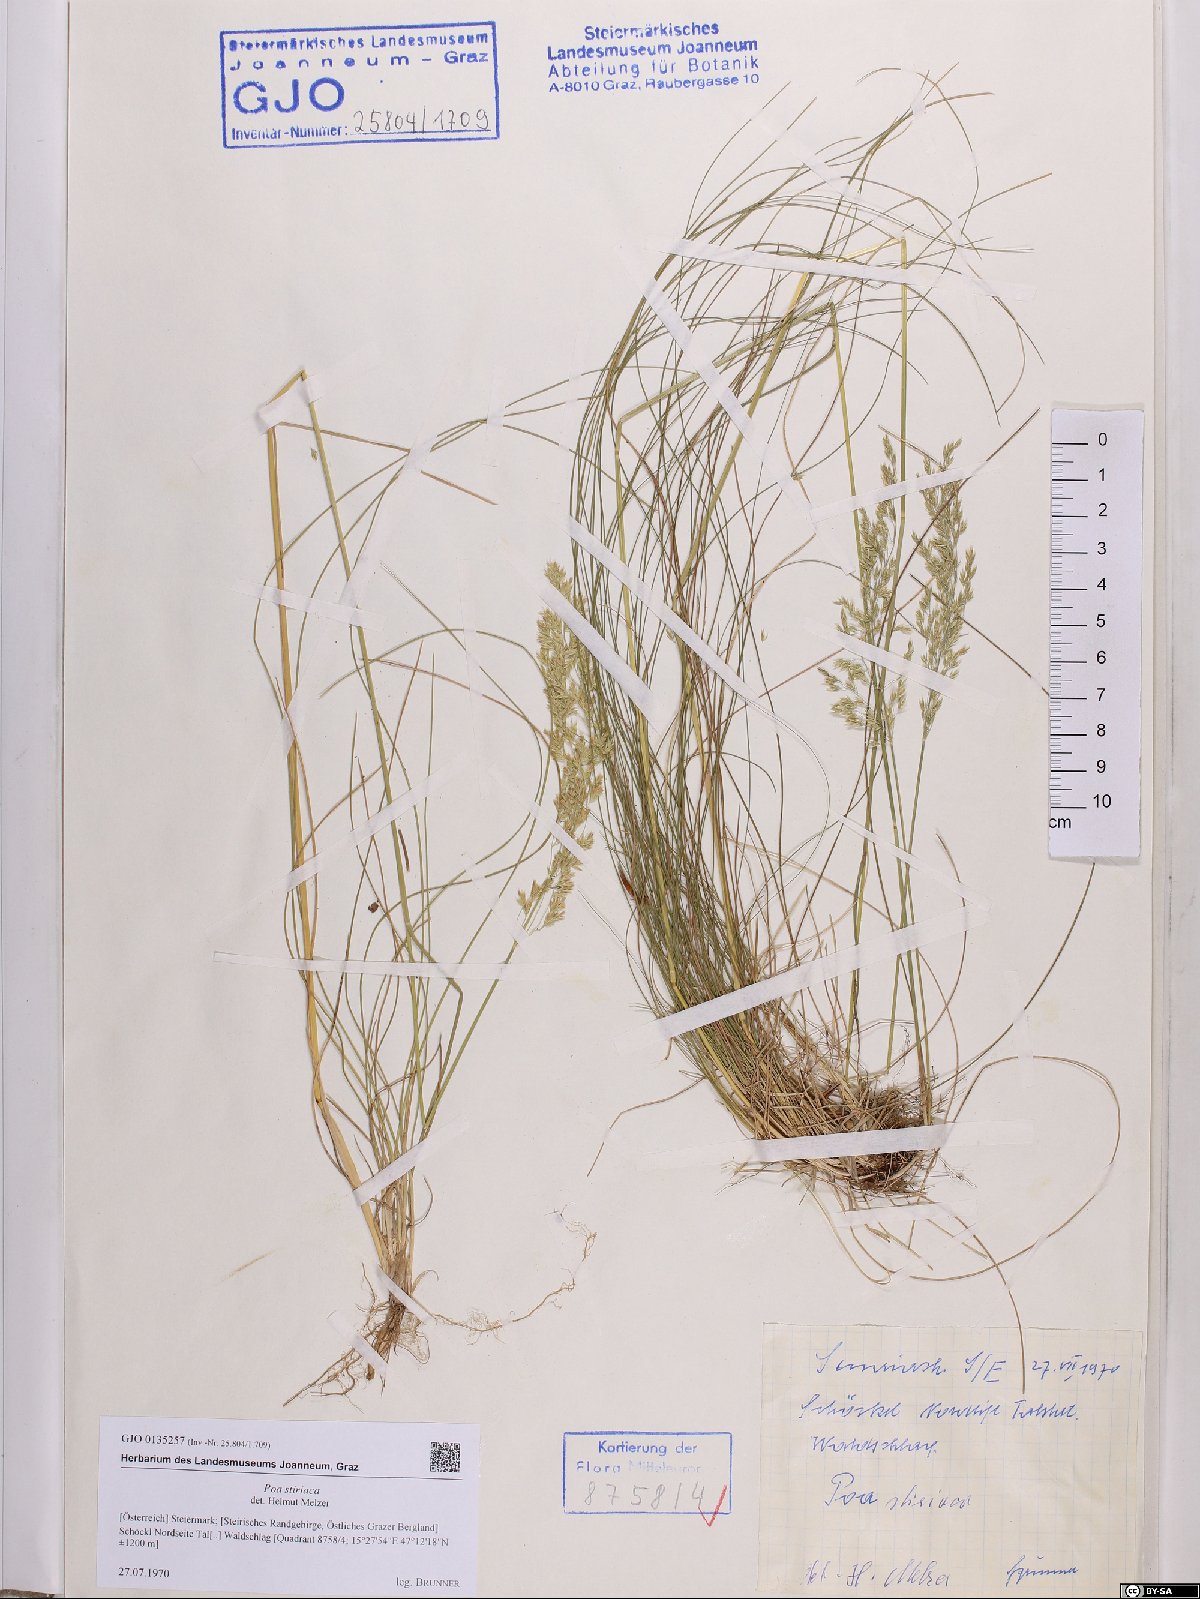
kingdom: Plantae
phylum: Tracheophyta
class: Liliopsida
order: Poales
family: Poaceae
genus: Poa
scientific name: Poa stiriaca
